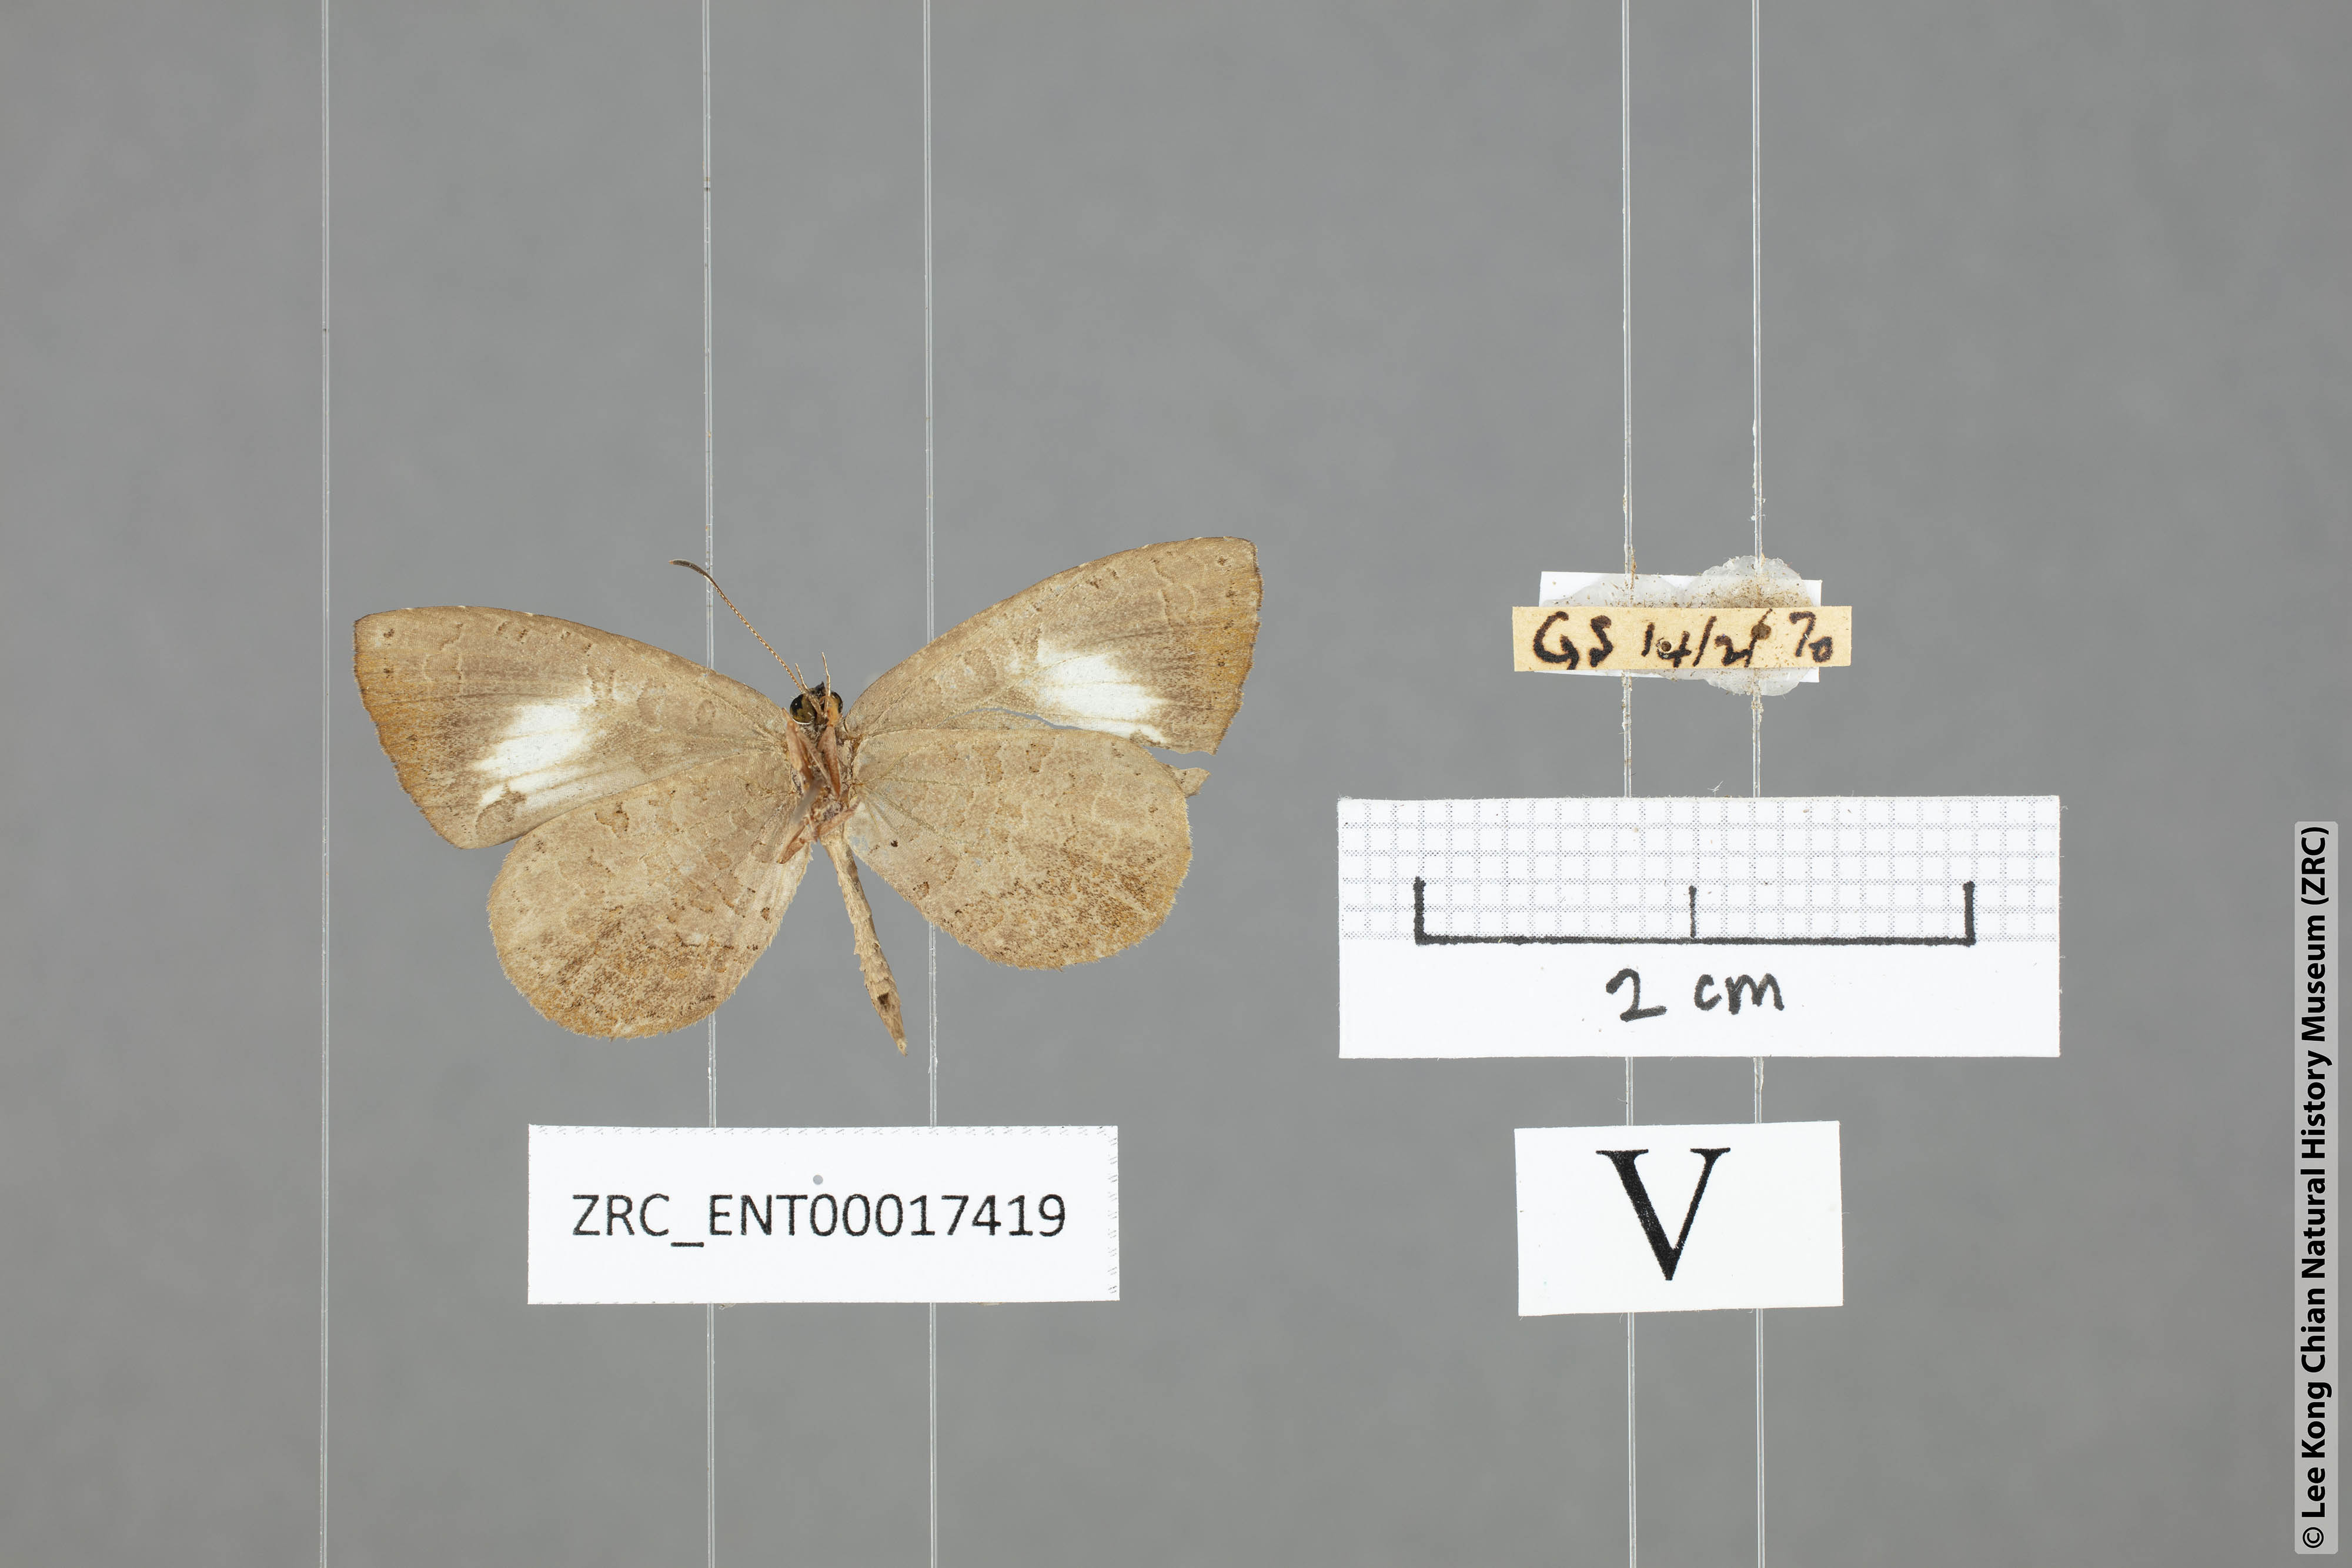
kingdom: Animalia
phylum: Arthropoda
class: Insecta
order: Lepidoptera
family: Lycaenidae
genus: Miletus
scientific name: Miletus biggsii
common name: Bigg's brownie
